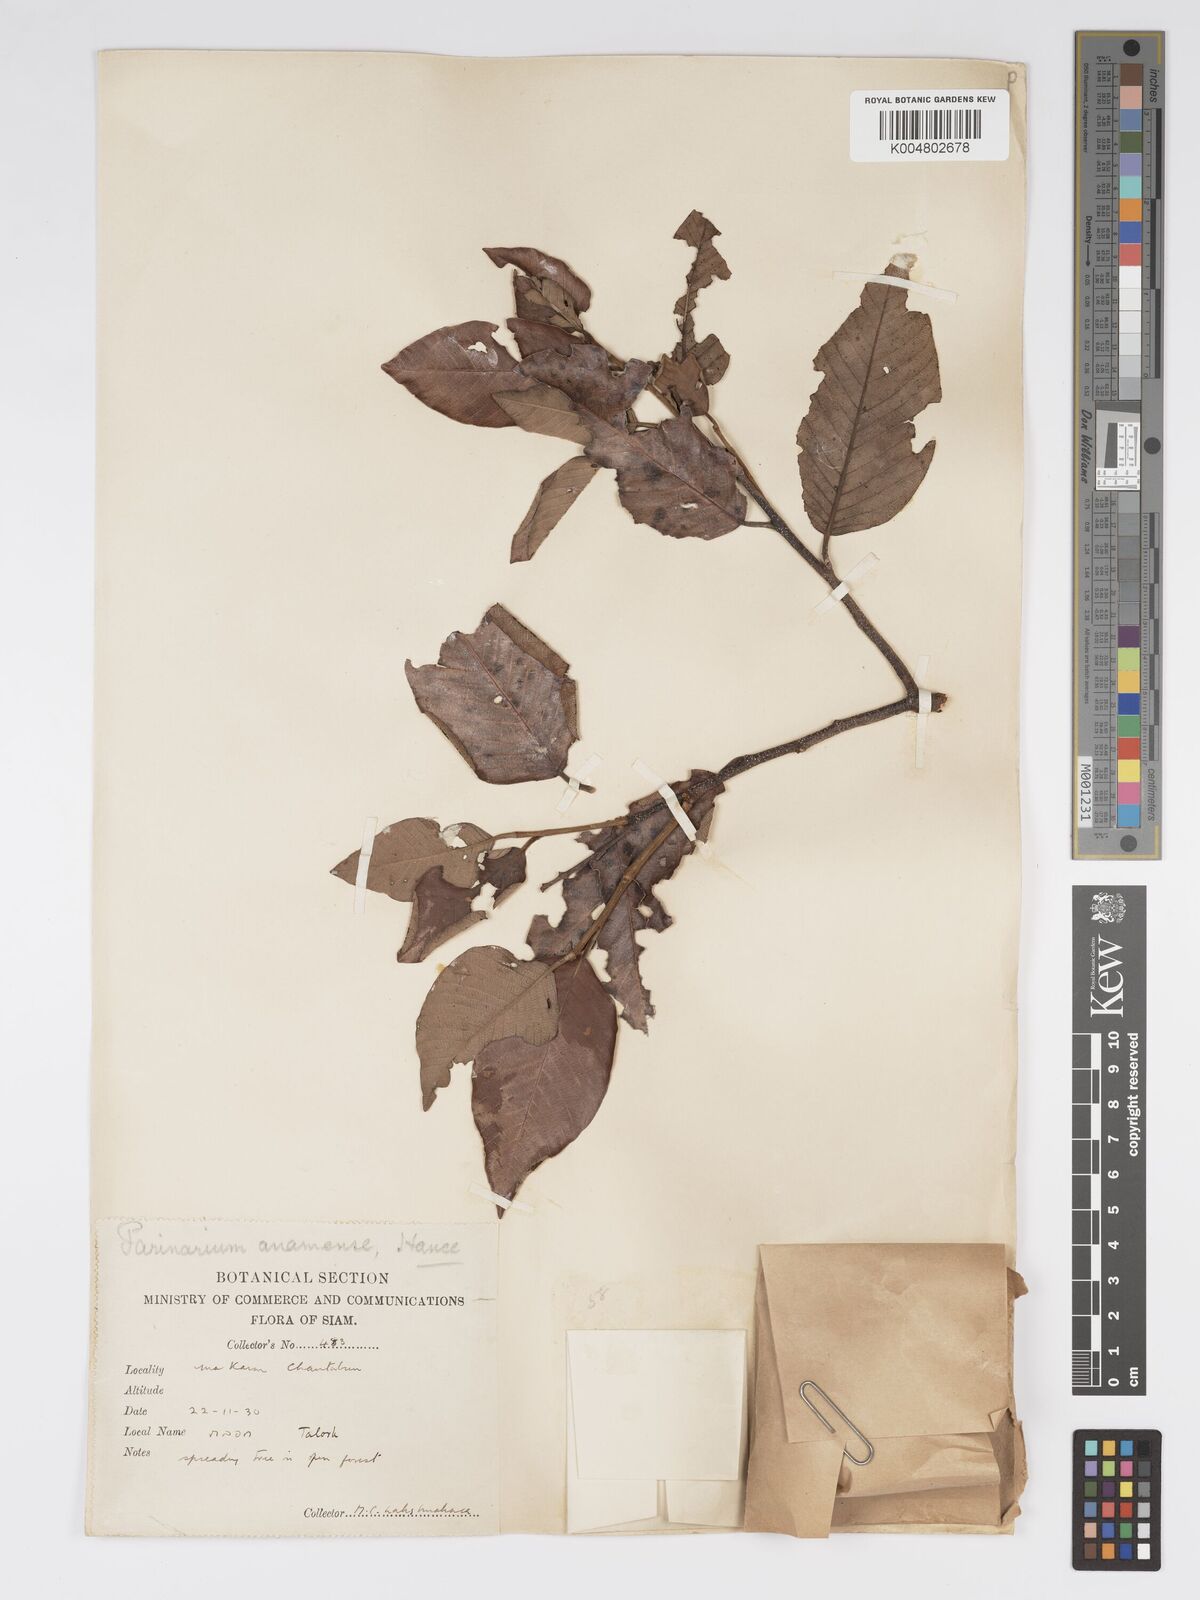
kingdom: Plantae
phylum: Tracheophyta
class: Magnoliopsida
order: Malpighiales
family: Chrysobalanaceae
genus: Parinari
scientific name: Parinari
